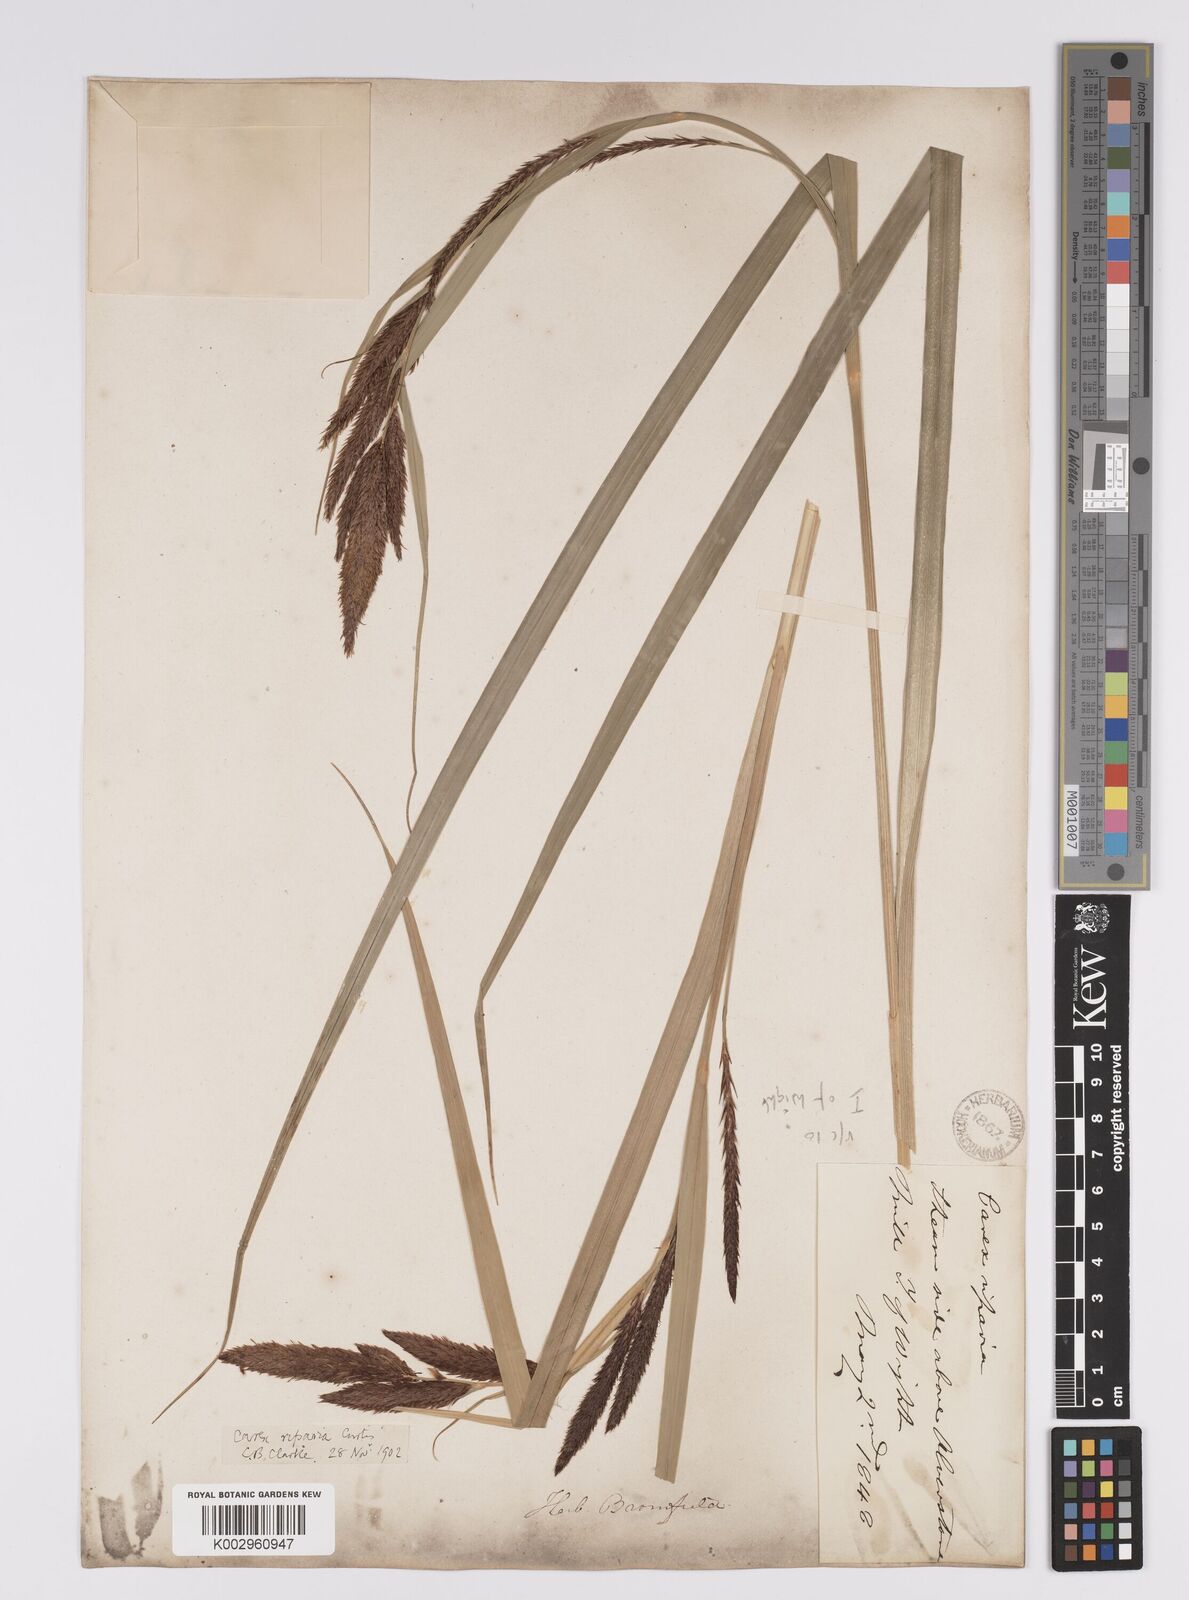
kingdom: Plantae
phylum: Tracheophyta
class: Liliopsida
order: Poales
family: Cyperaceae
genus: Carex
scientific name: Carex riparia
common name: Greater pond-sedge
